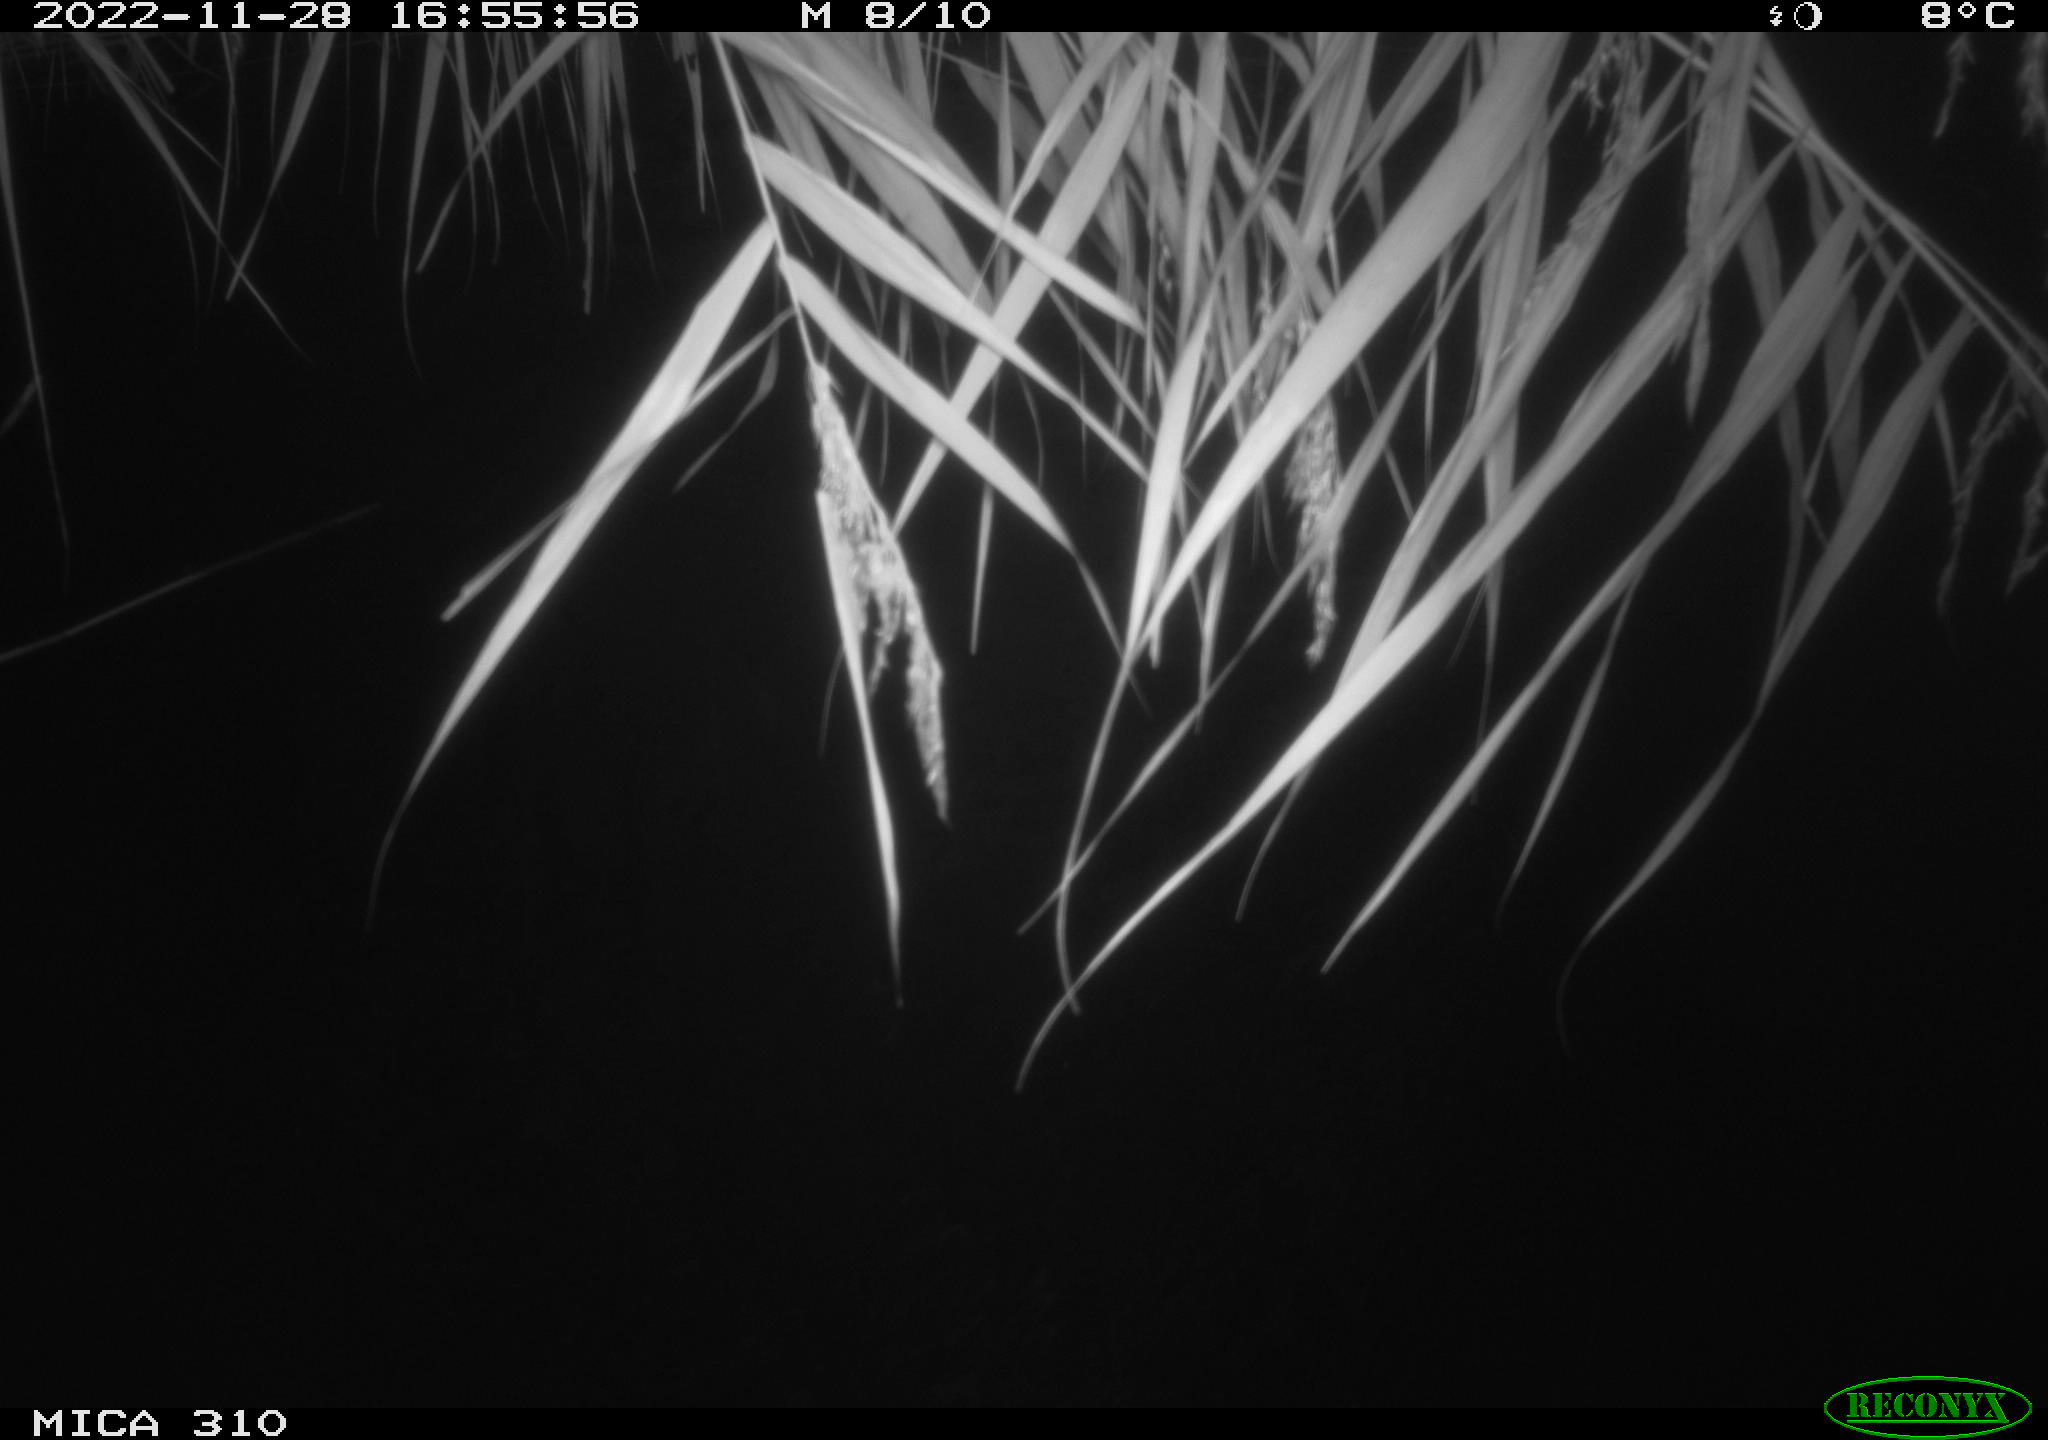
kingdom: Animalia
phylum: Chordata
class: Aves
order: Anseriformes
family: Anatidae
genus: Anas
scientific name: Anas
